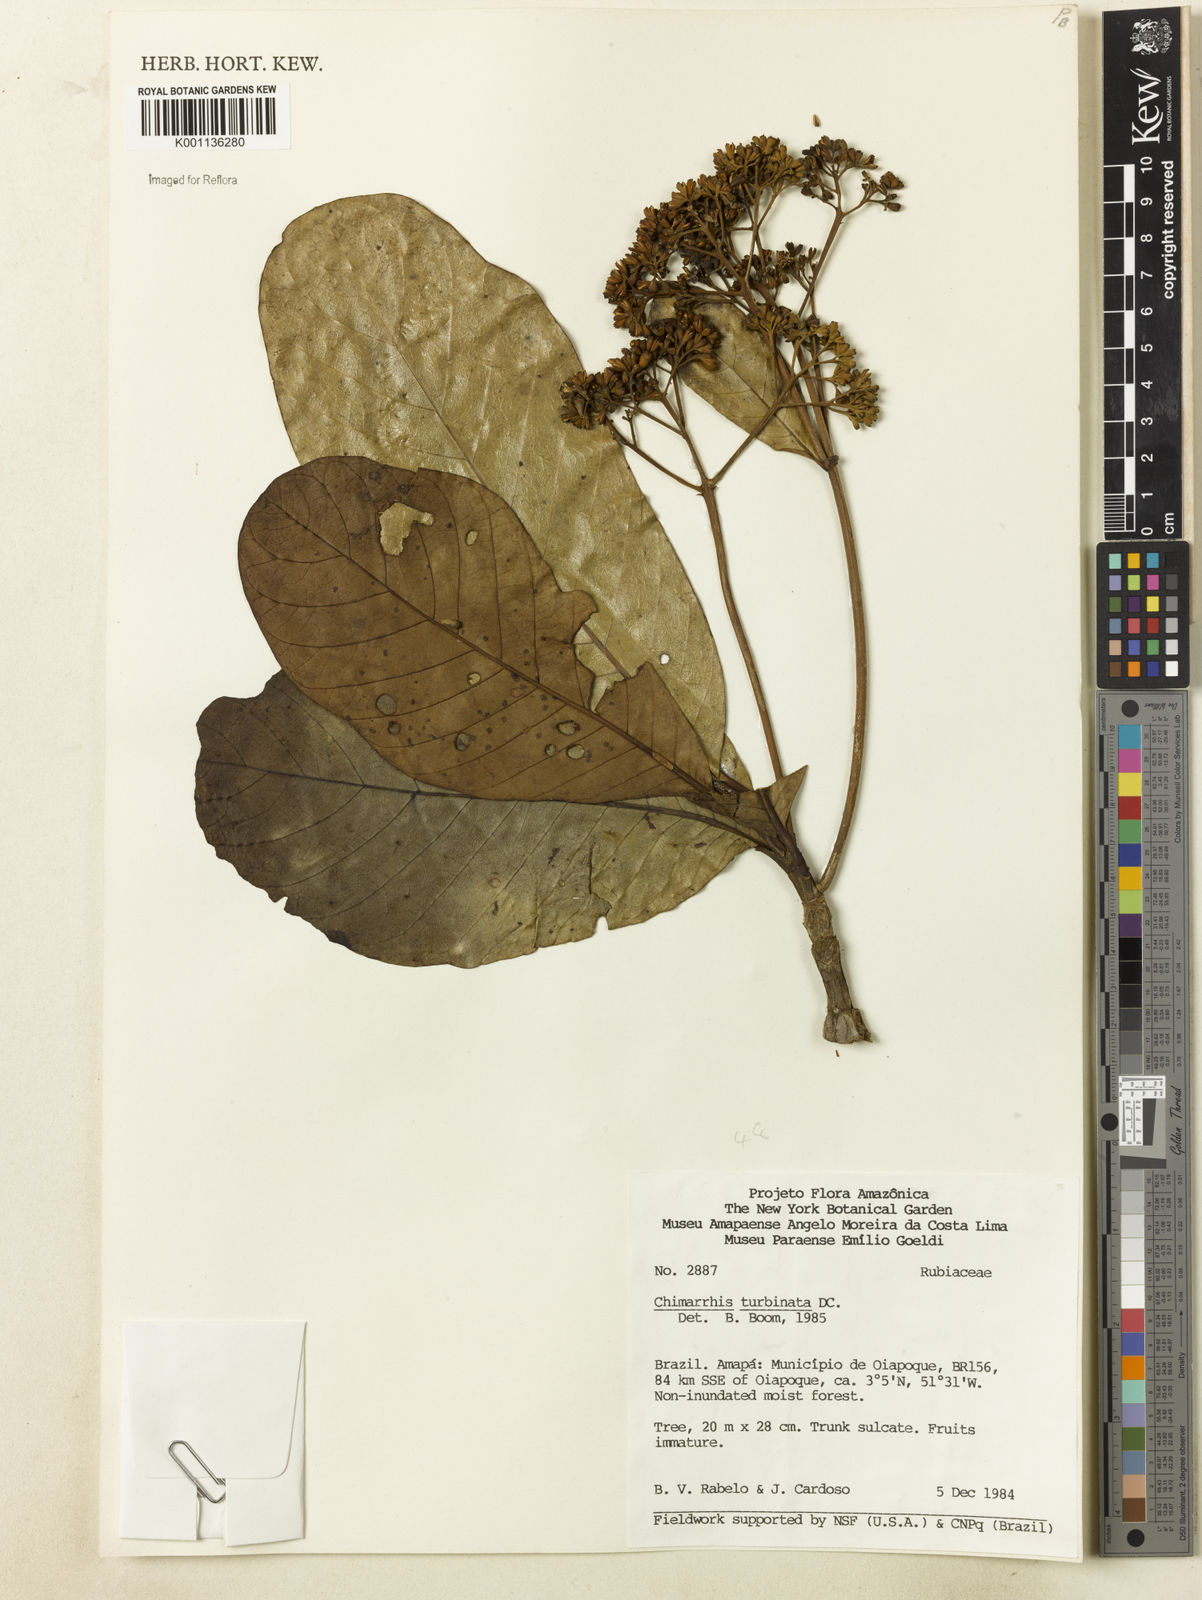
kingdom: Plantae
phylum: Tracheophyta
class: Magnoliopsida
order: Gentianales
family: Rubiaceae
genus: Chimarrhis
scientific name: Chimarrhis turbinata
